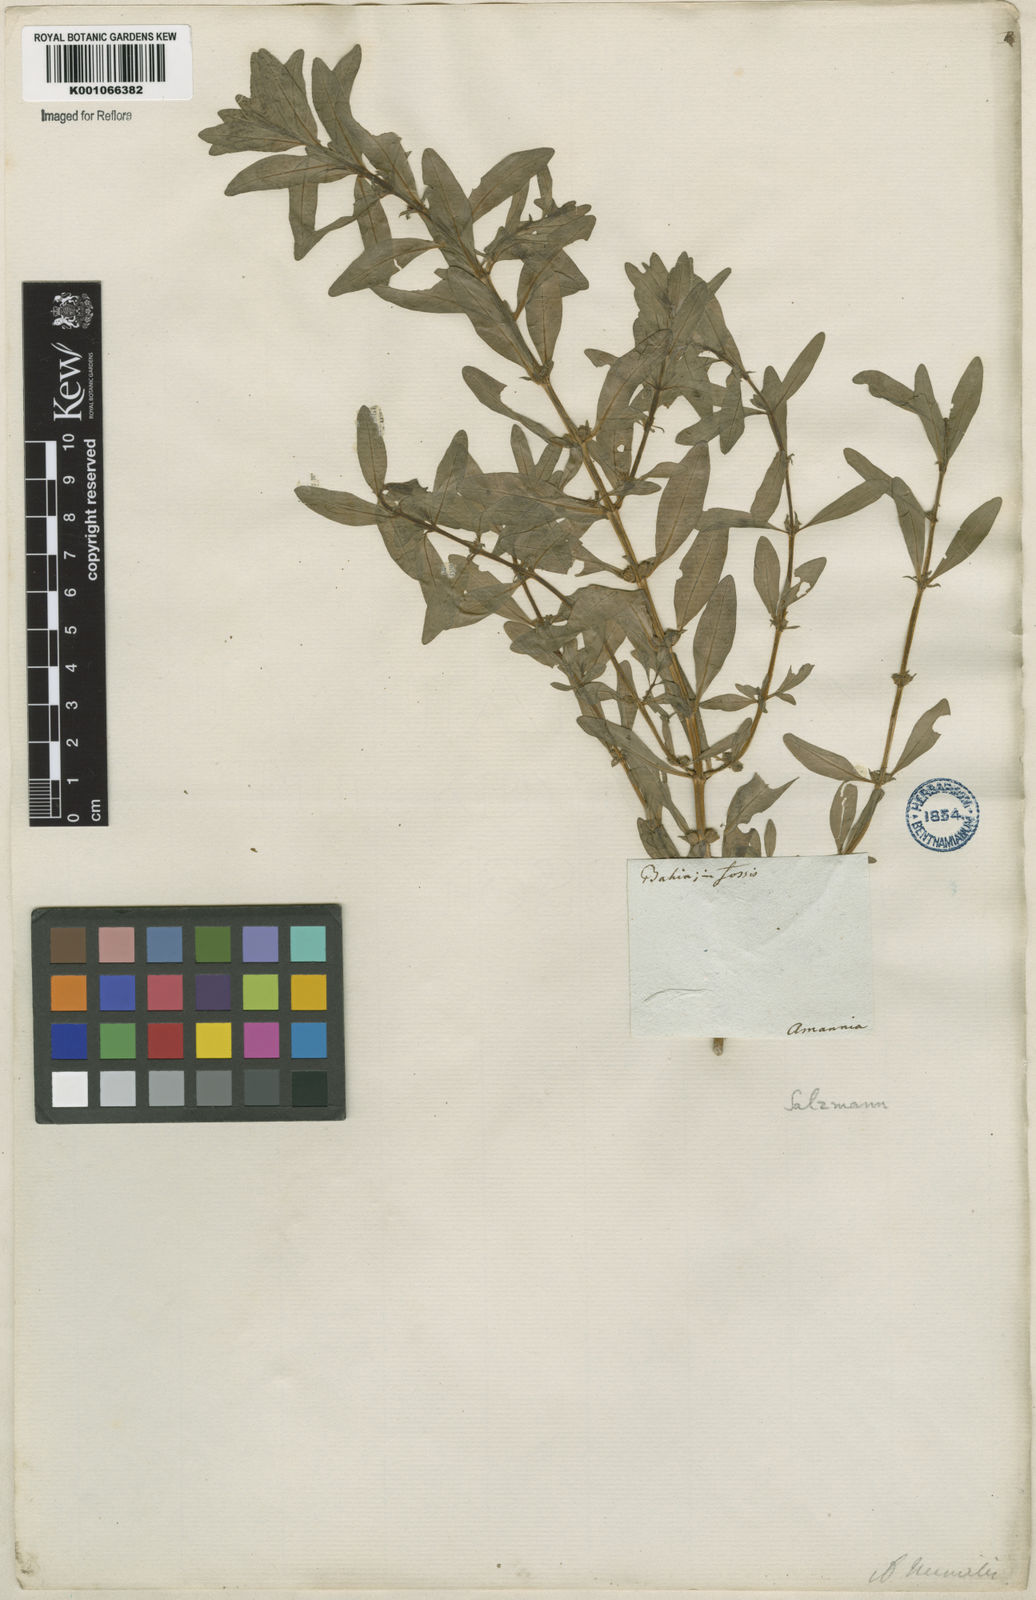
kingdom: Plantae
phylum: Tracheophyta
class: Magnoliopsida
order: Myrtales
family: Lythraceae
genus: Rotala
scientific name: Rotala ramosior
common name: Lowland rotala
